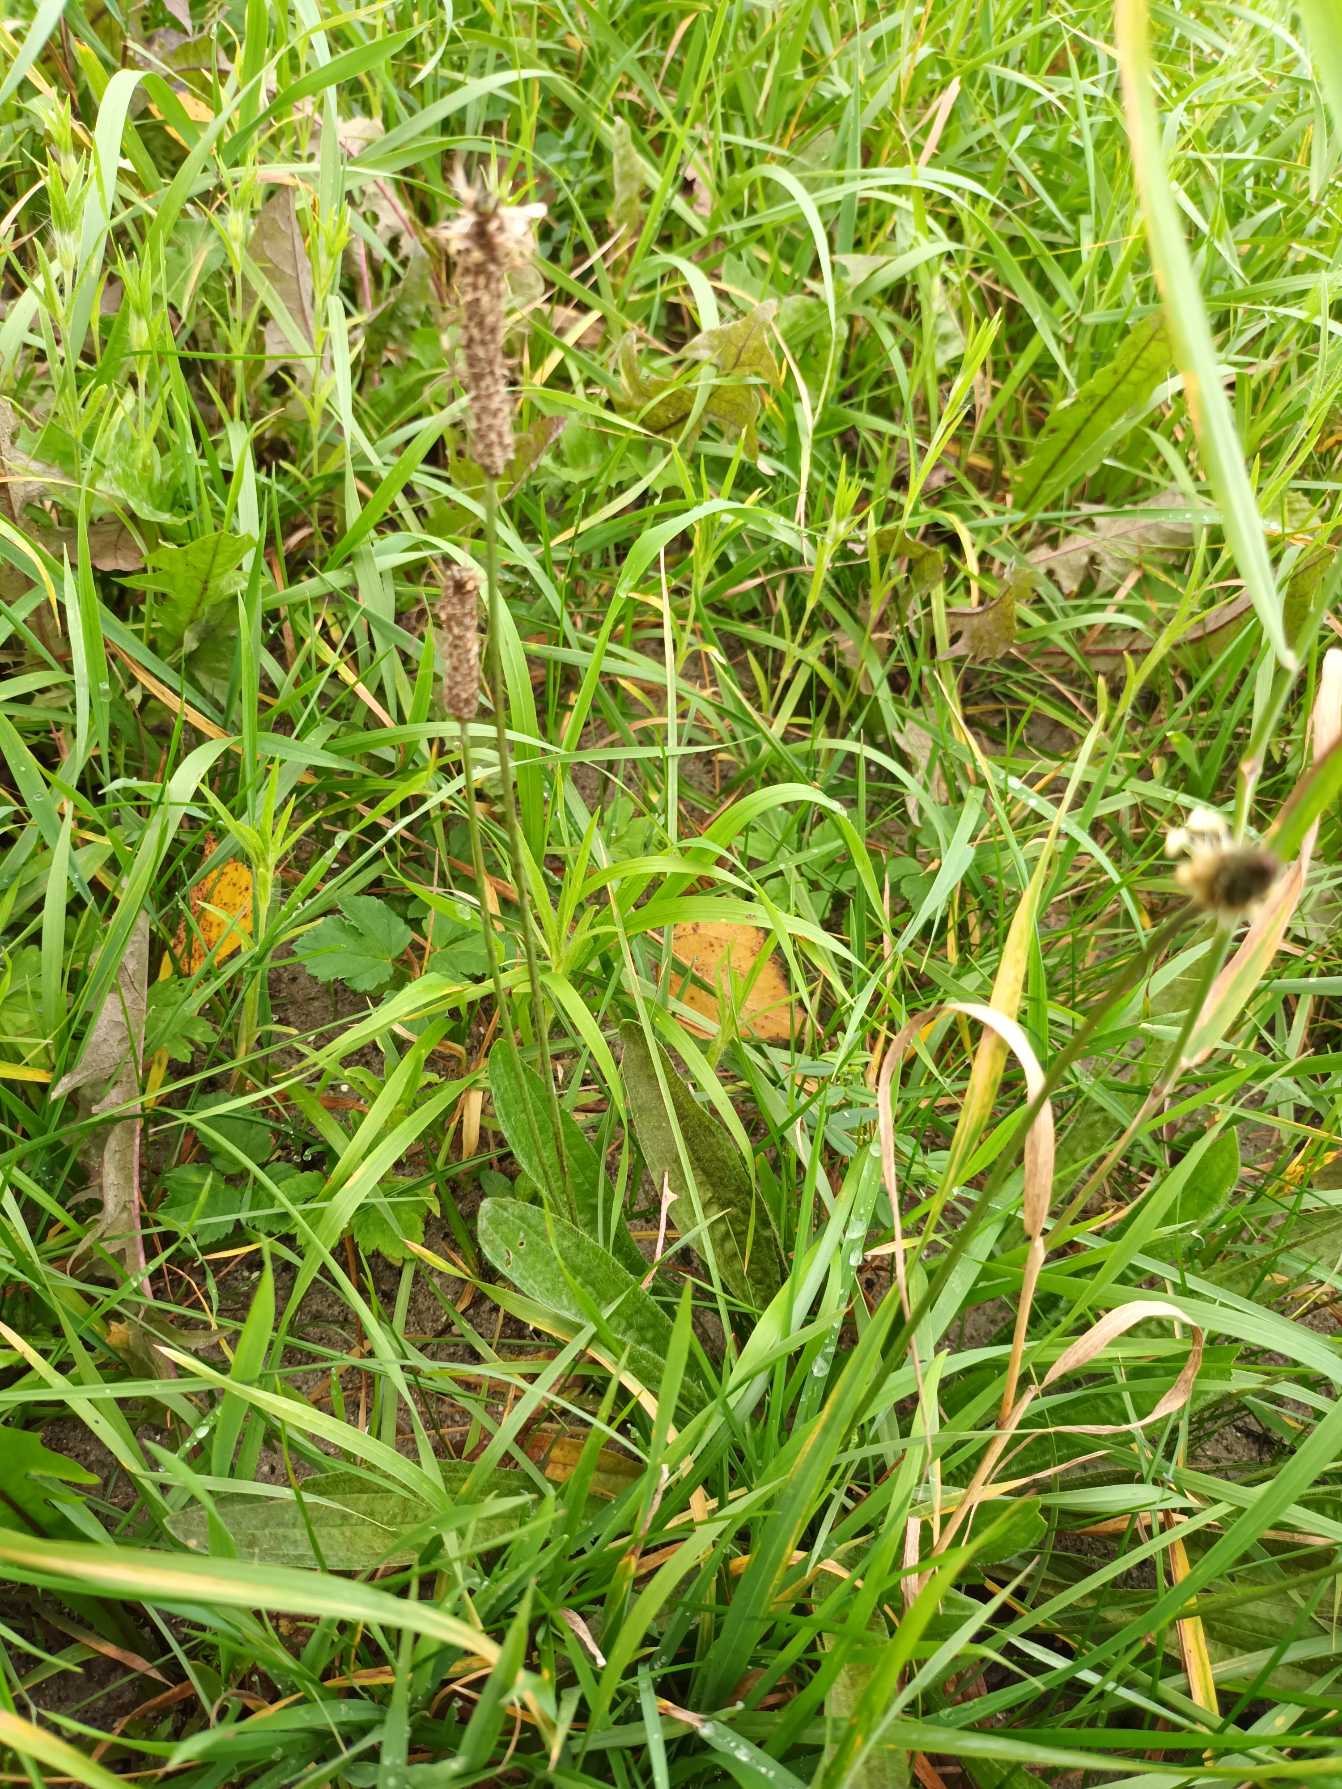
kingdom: Plantae
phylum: Tracheophyta
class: Magnoliopsida
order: Lamiales
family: Plantaginaceae
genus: Plantago
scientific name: Plantago lanceolata
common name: Lancet-vejbred
